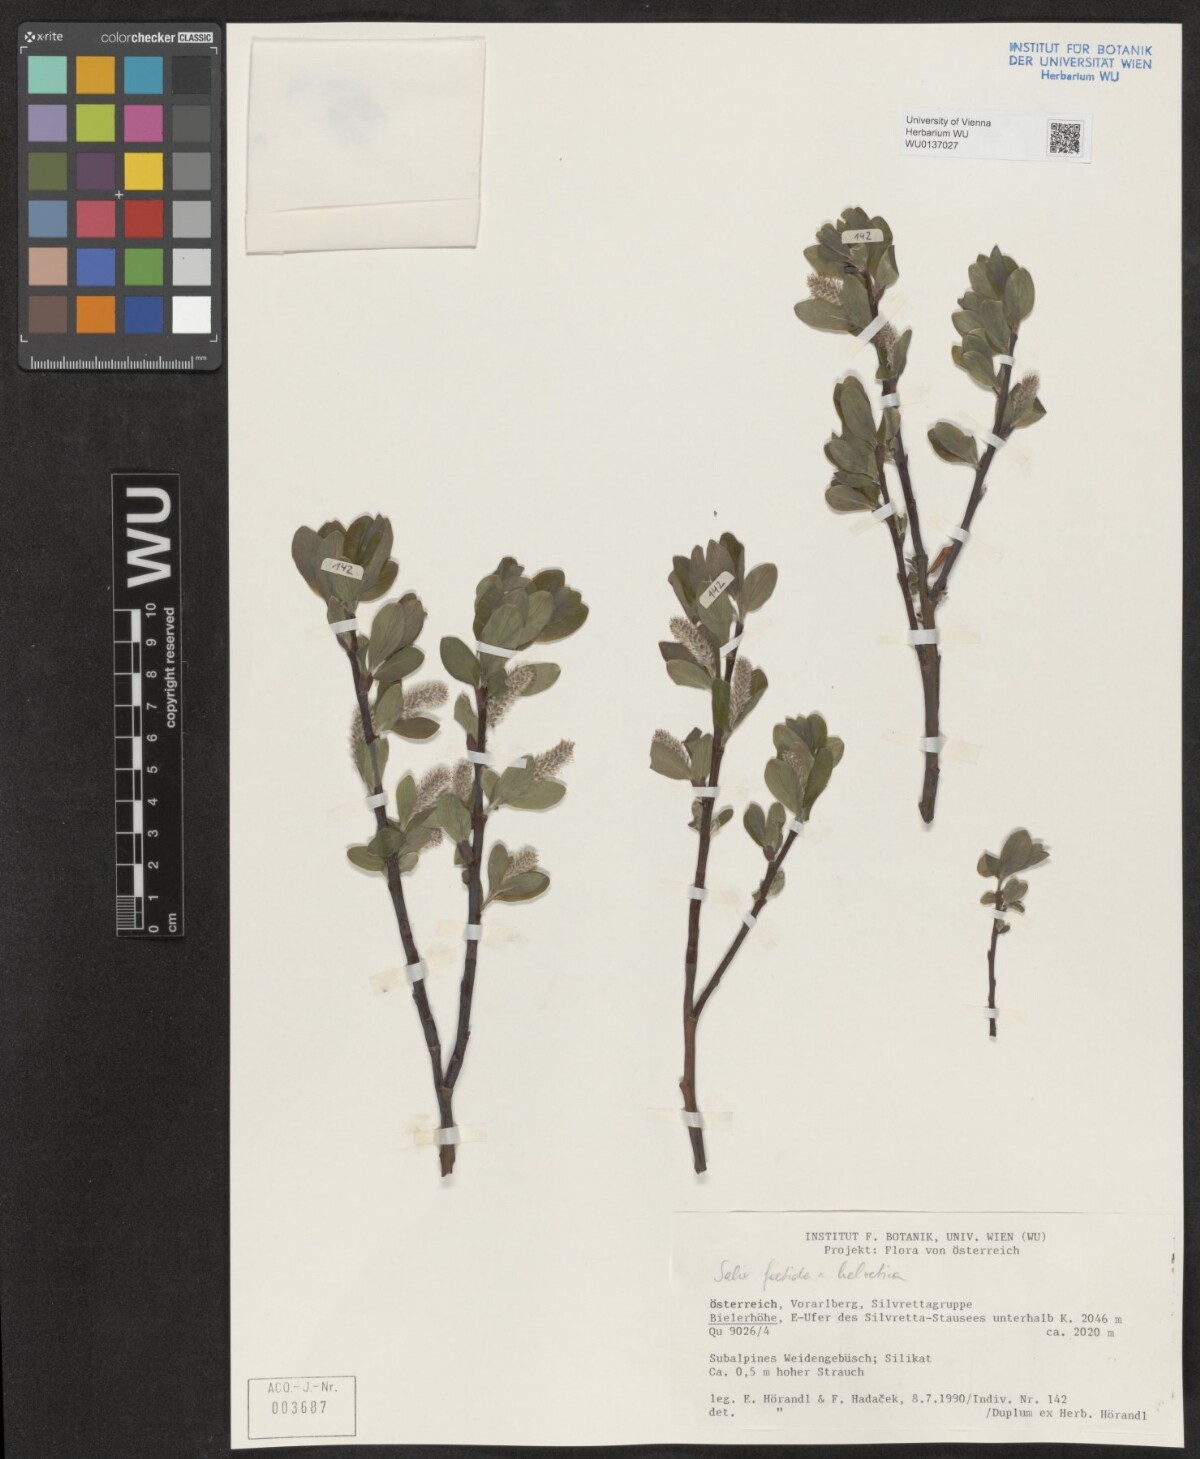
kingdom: Plantae
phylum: Tracheophyta
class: Magnoliopsida
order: Malpighiales
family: Salicaceae
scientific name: Salicaceae
